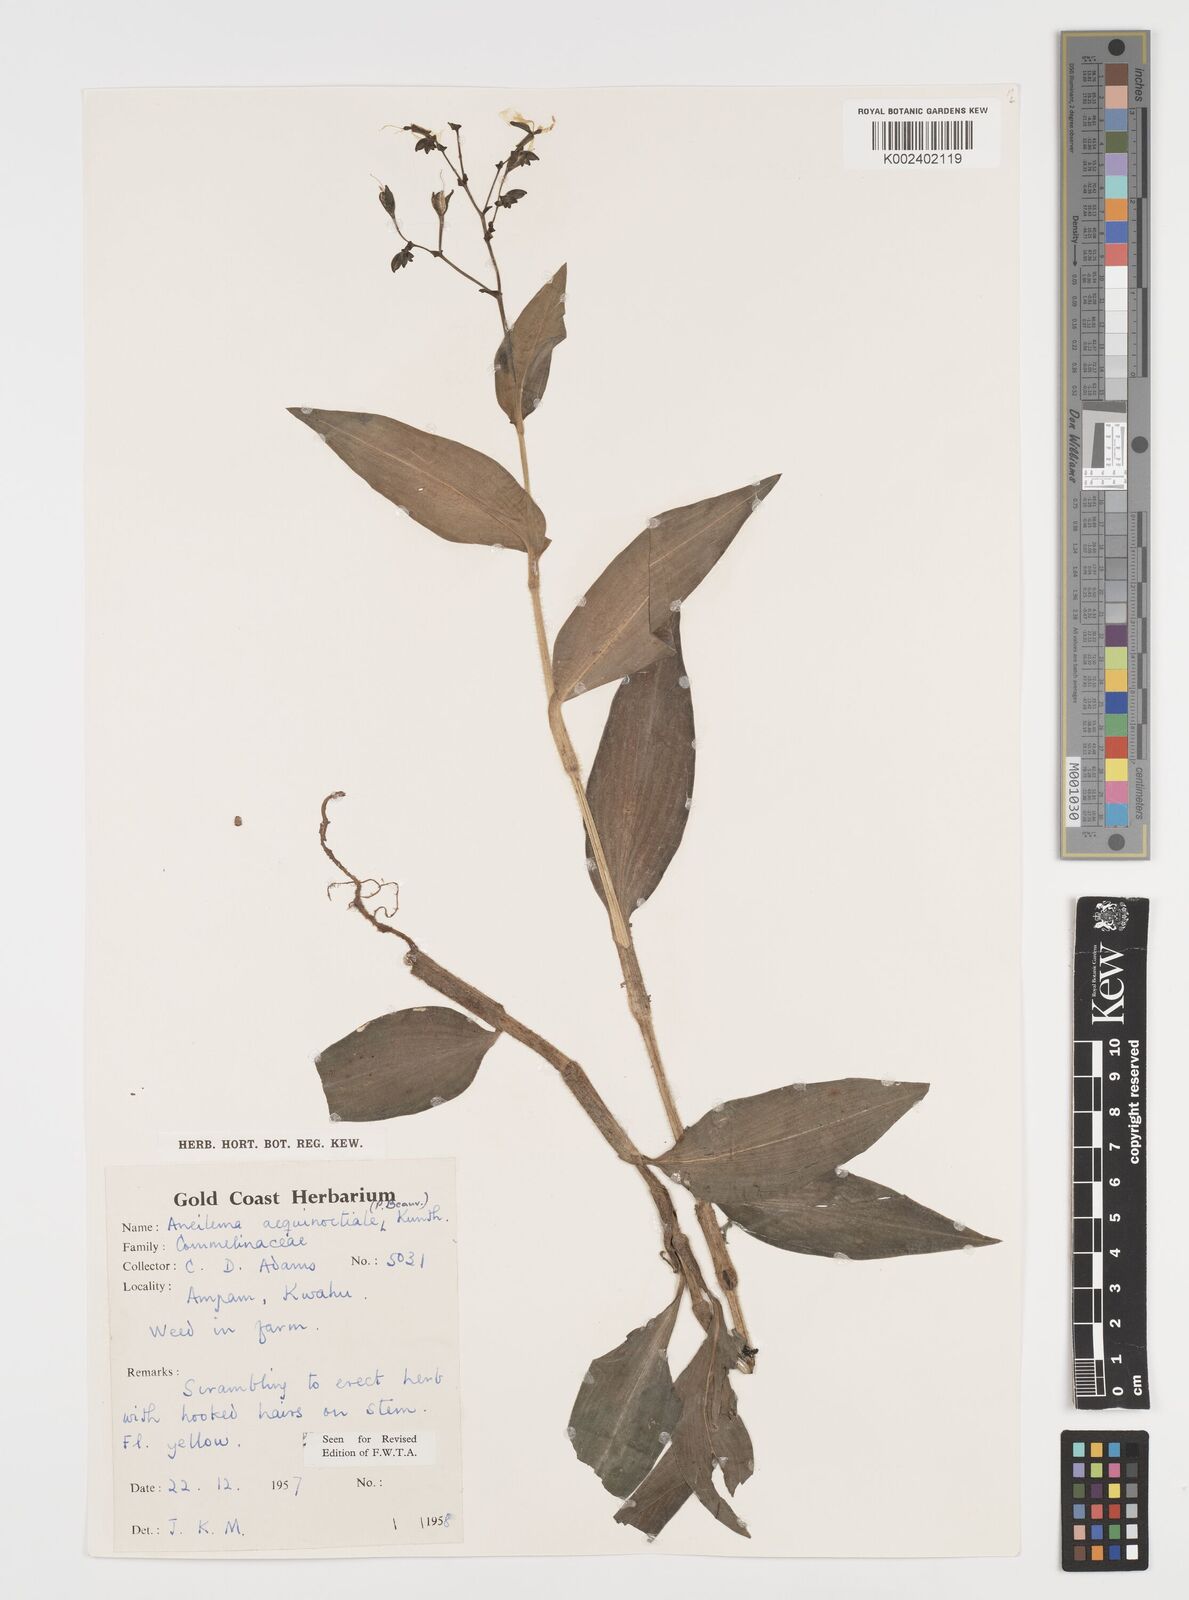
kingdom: Plantae
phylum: Tracheophyta
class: Liliopsida
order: Commelinales
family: Commelinaceae
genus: Aneilema
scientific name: Aneilema aequinoctiale
